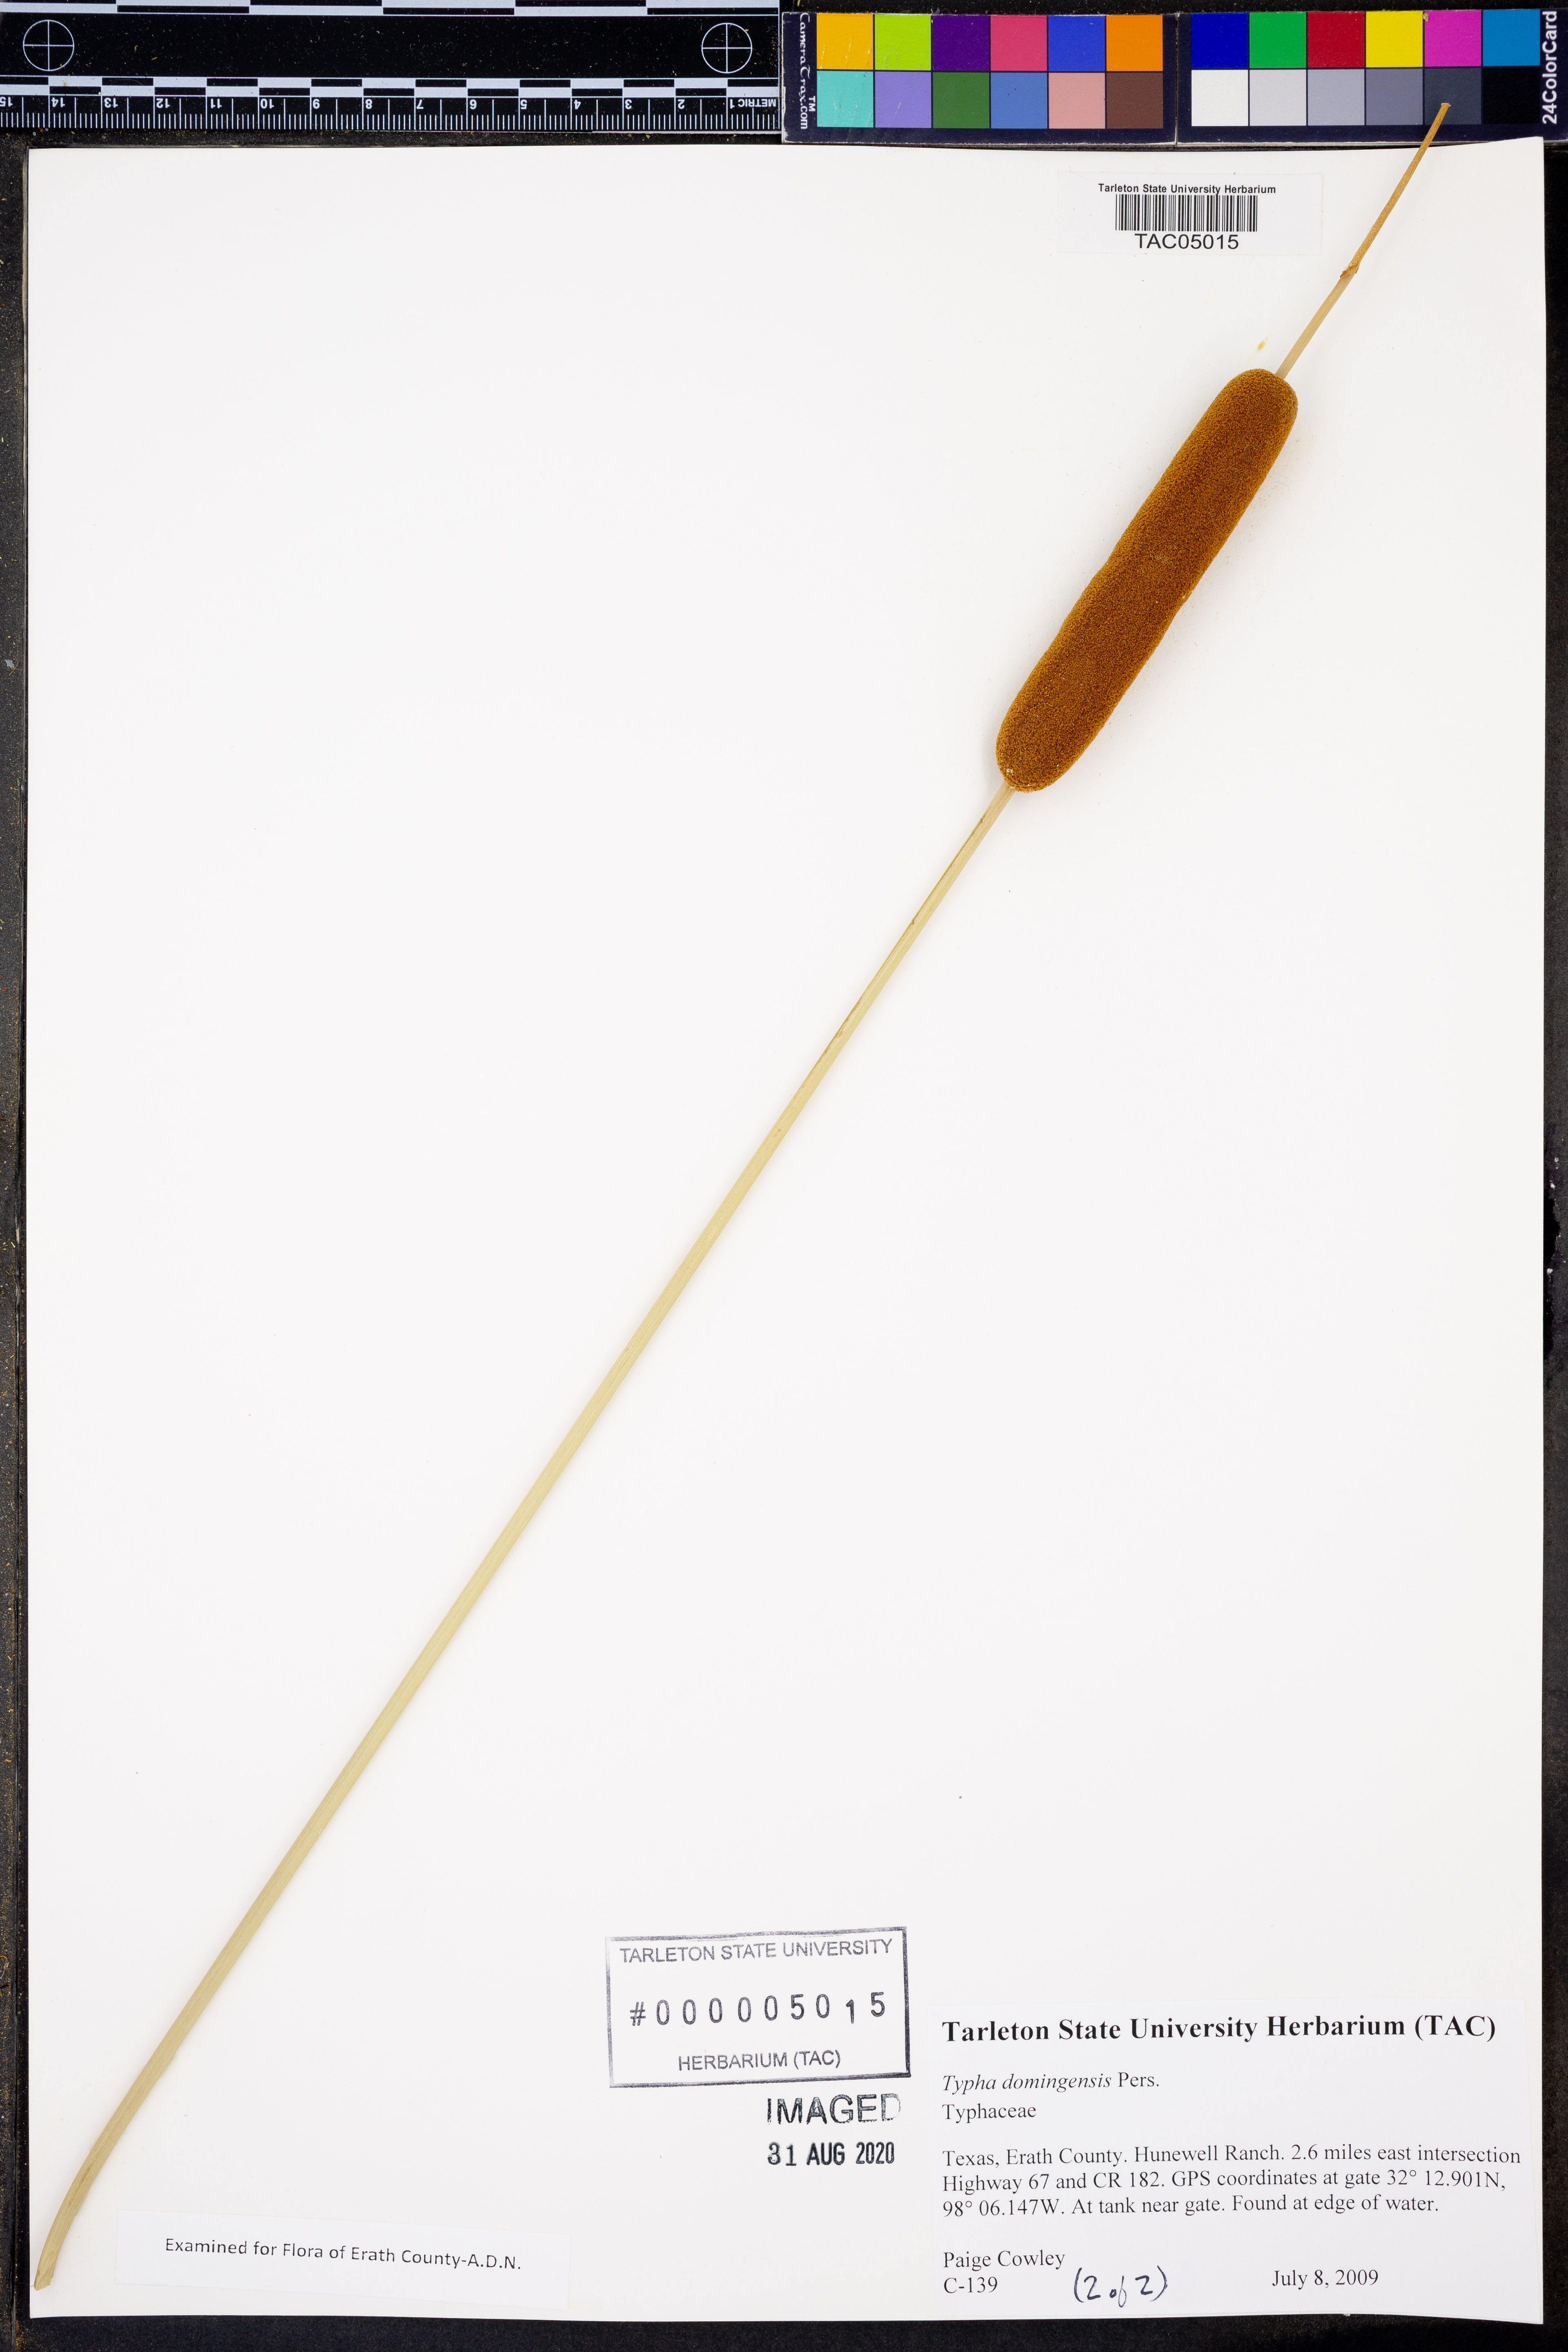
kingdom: Plantae
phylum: Tracheophyta
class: Liliopsida
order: Poales
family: Typhaceae
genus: Typha
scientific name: Typha domingensis
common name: Southern cattail
